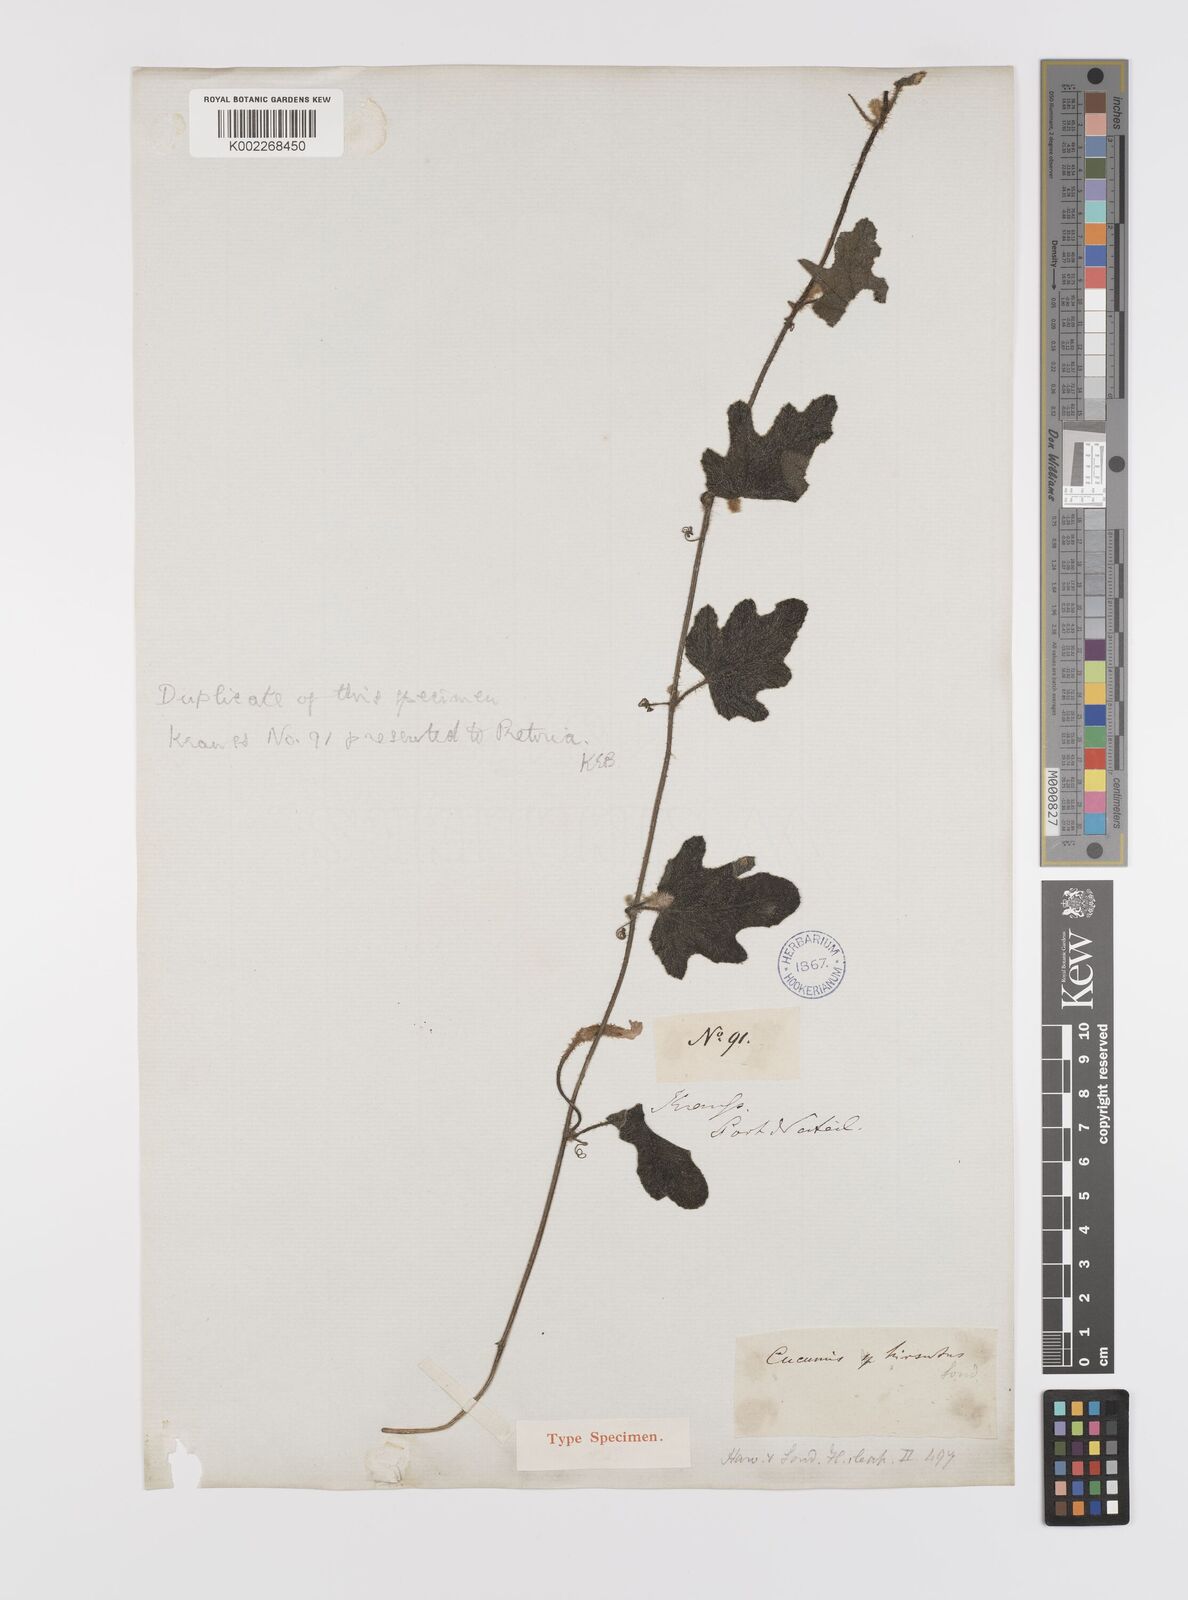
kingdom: Plantae
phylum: Tracheophyta
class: Magnoliopsida
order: Cucurbitales
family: Cucurbitaceae
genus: Cucumis
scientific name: Cucumis hirsutus
